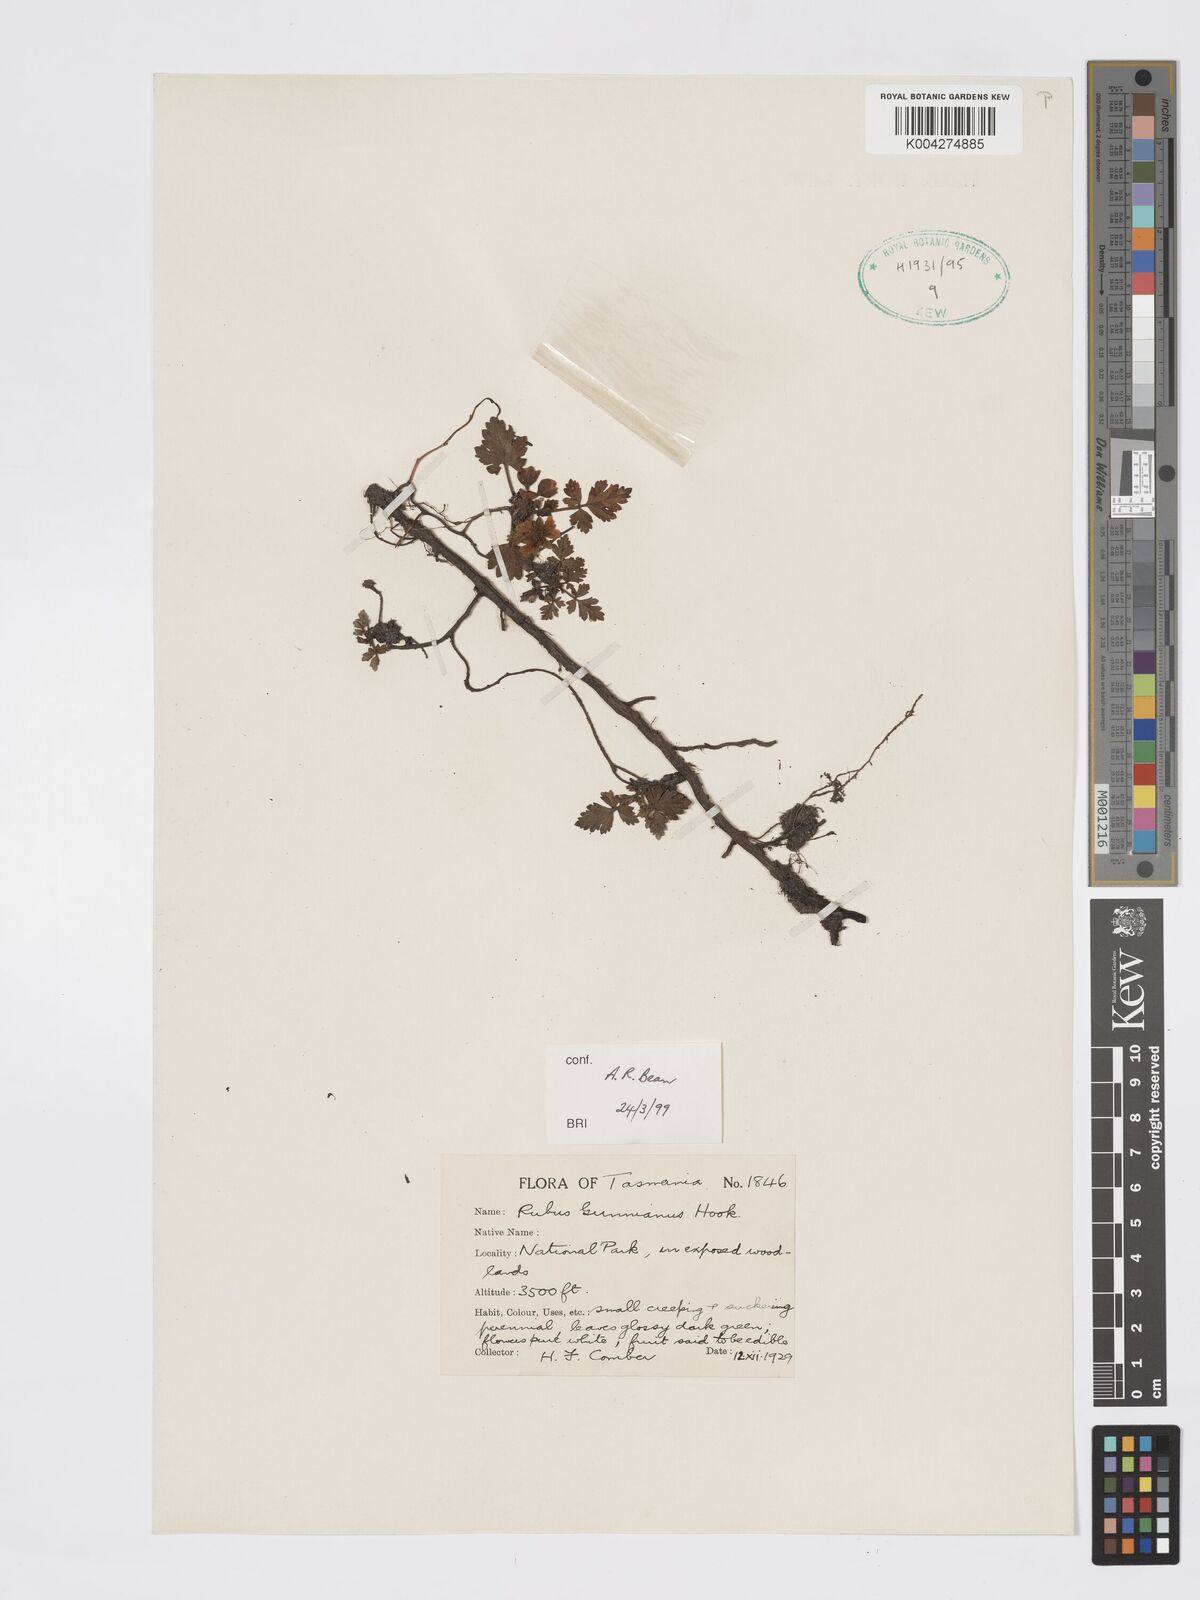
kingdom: Plantae
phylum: Tracheophyta
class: Magnoliopsida
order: Rosales
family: Rosaceae
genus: Rubus
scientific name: Rubus gunnianus
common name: Mountain raspberry
